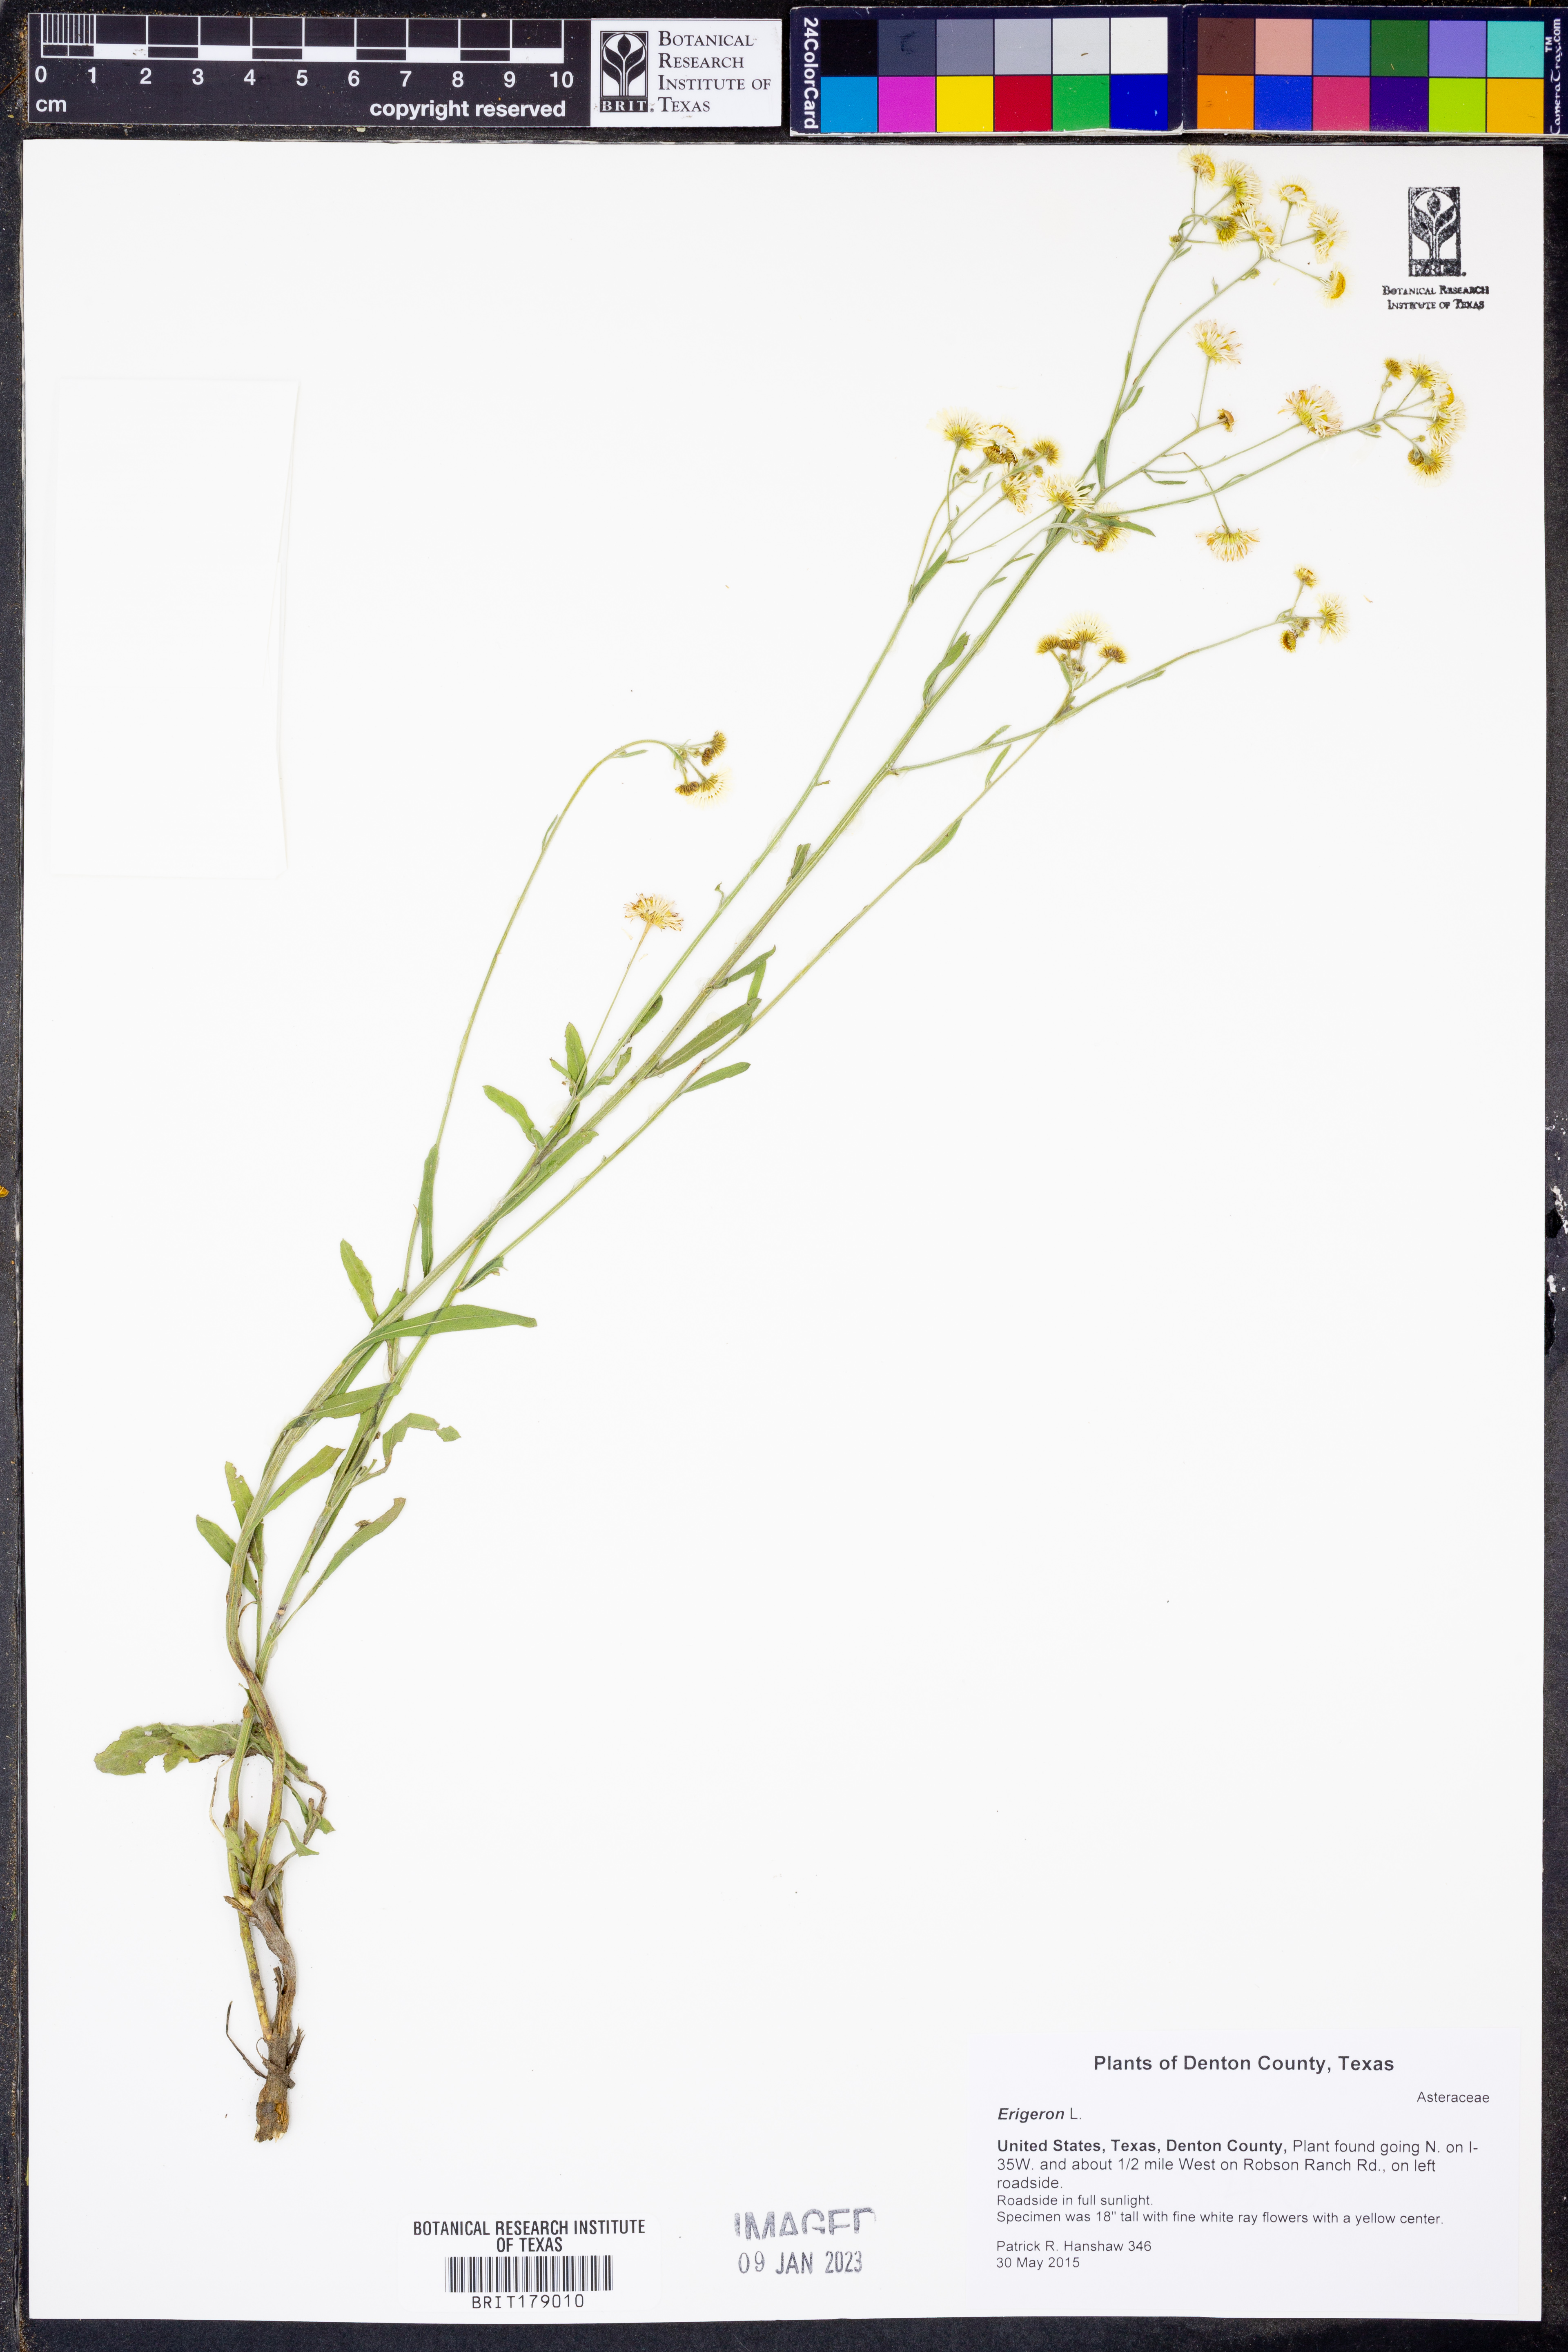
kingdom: Plantae
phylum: Tracheophyta
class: Magnoliopsida
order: Asterales
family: Asteraceae
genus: Erigeron
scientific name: Erigeron
